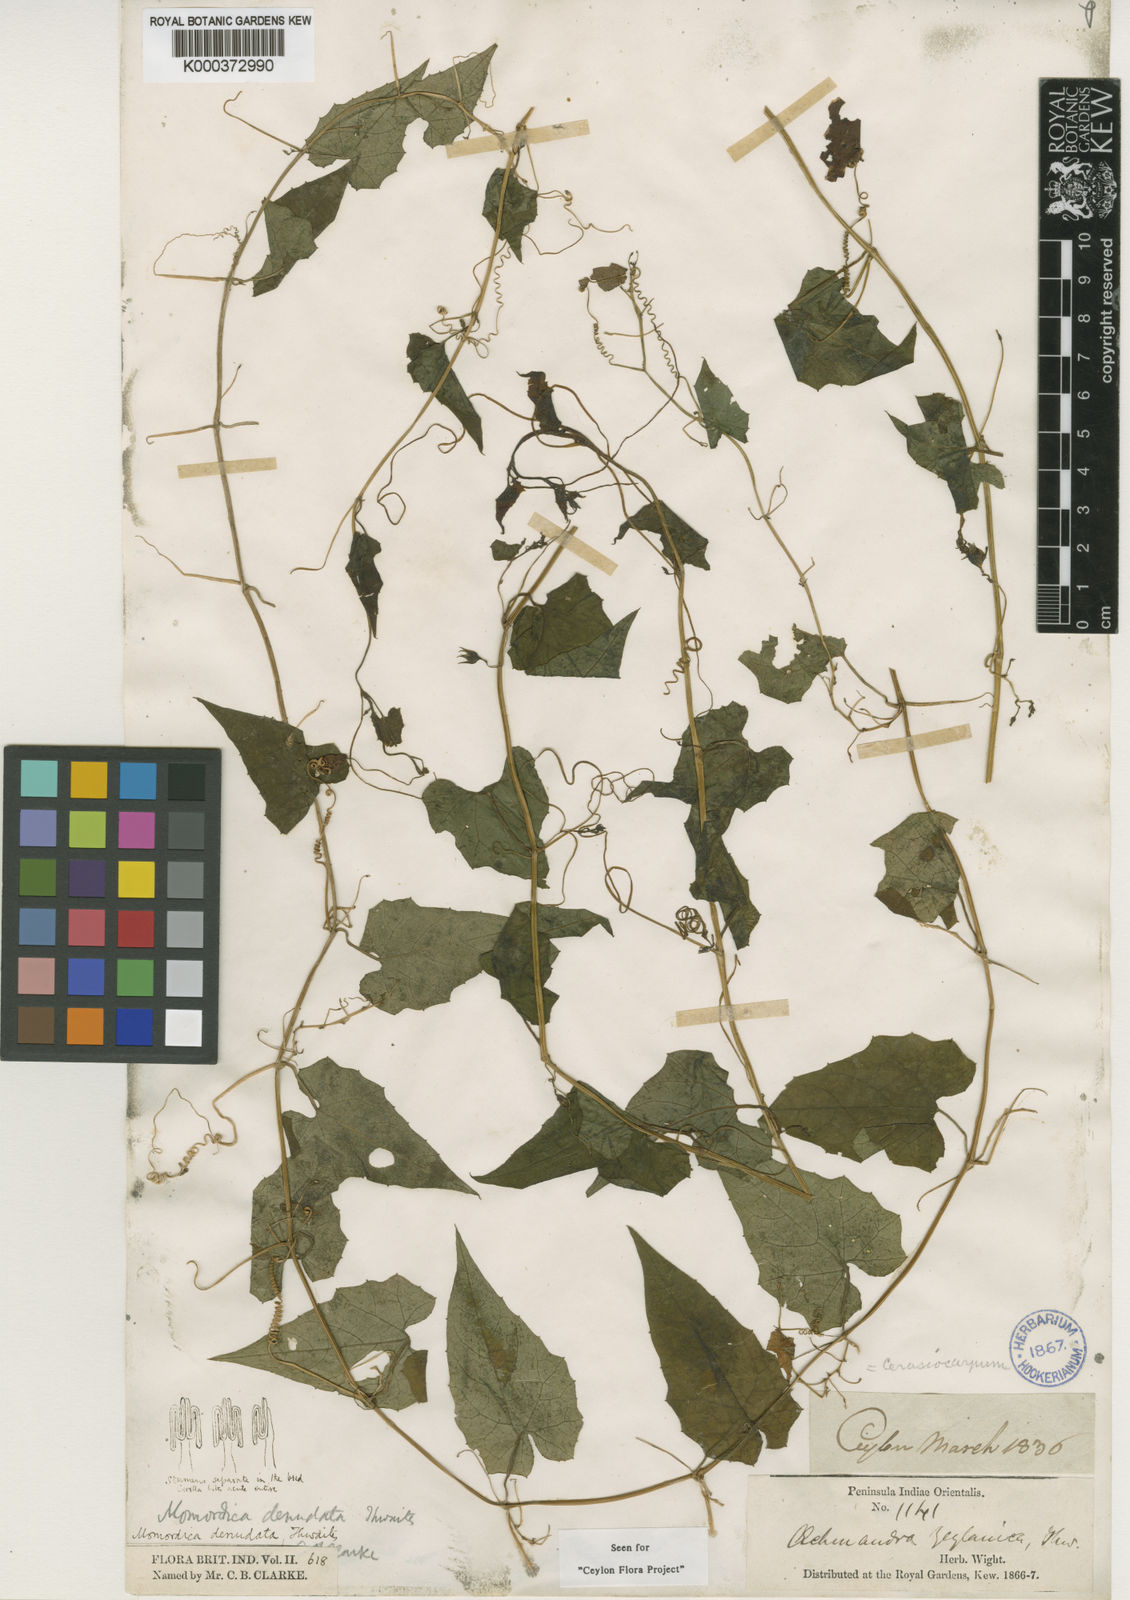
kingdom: Plantae
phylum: Tracheophyta
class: Magnoliopsida
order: Cucurbitales
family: Cucurbitaceae
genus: Momordica
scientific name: Momordica denudata
